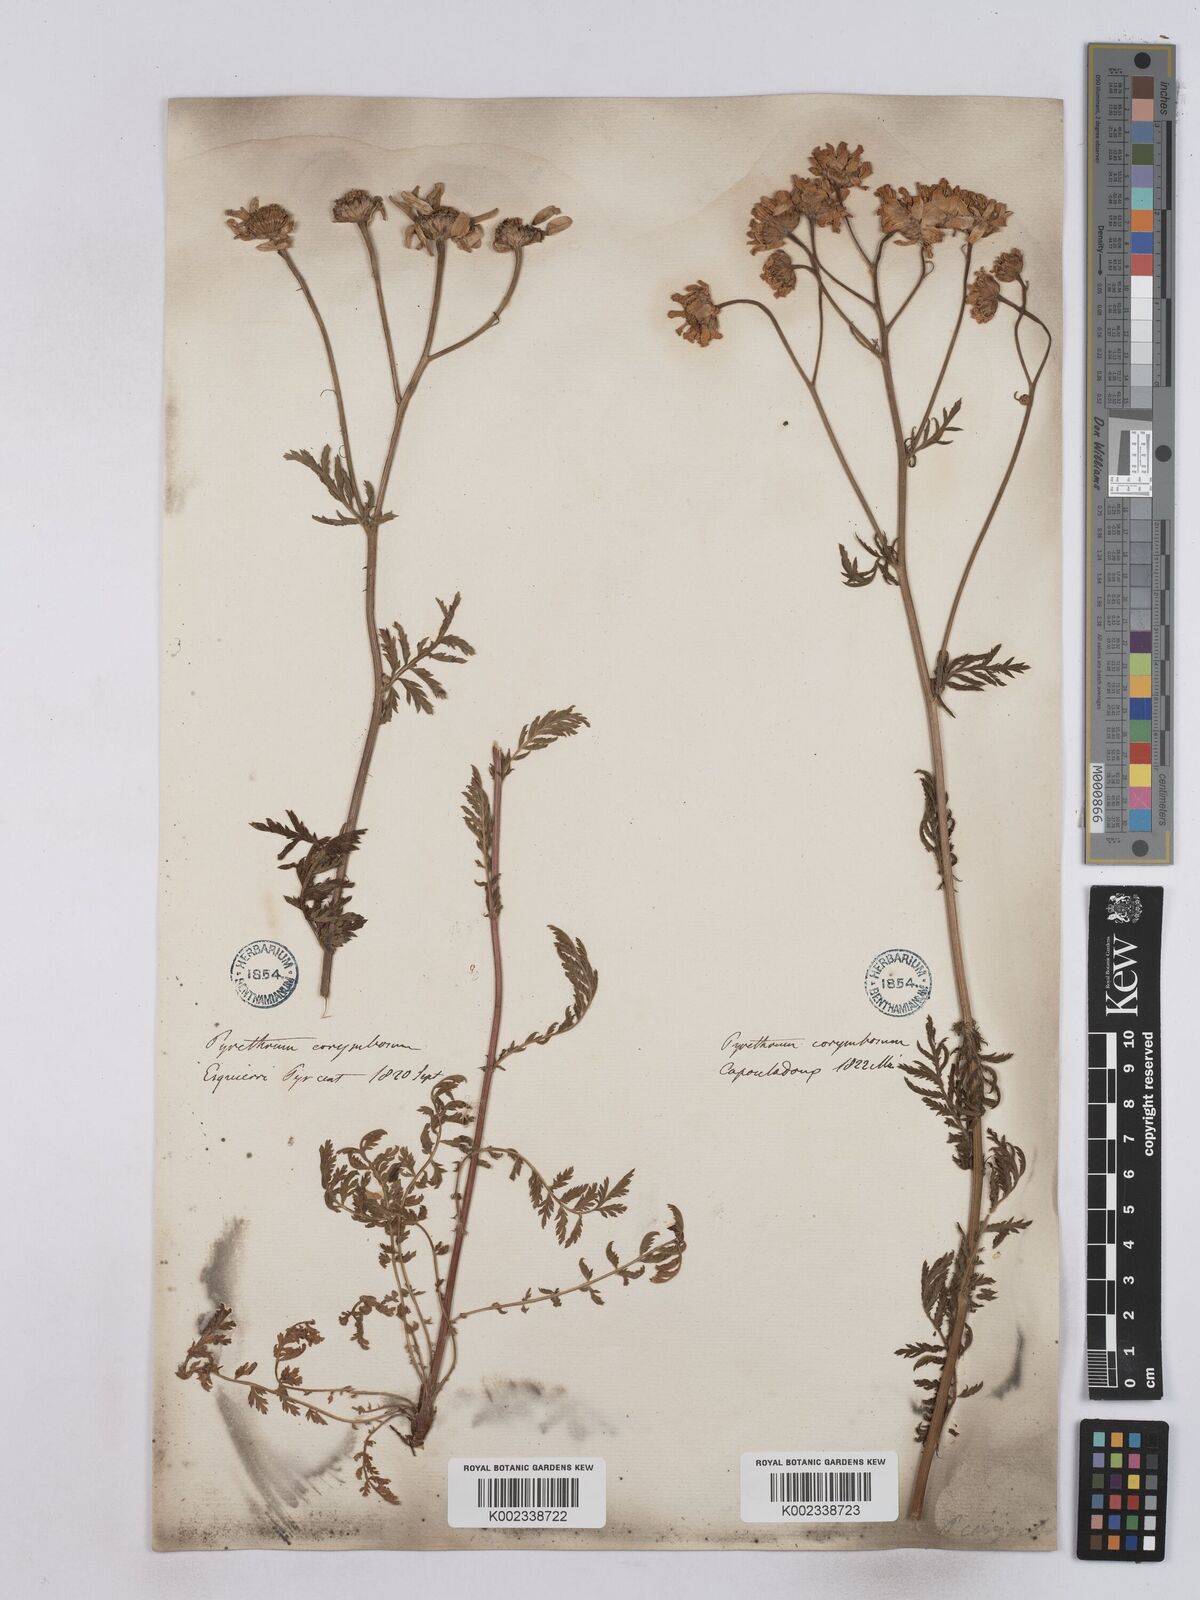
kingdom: Plantae
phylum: Tracheophyta
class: Magnoliopsida
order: Asterales
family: Asteraceae
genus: Tanacetum
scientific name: Tanacetum corymbosum
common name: Scentless feverfew
